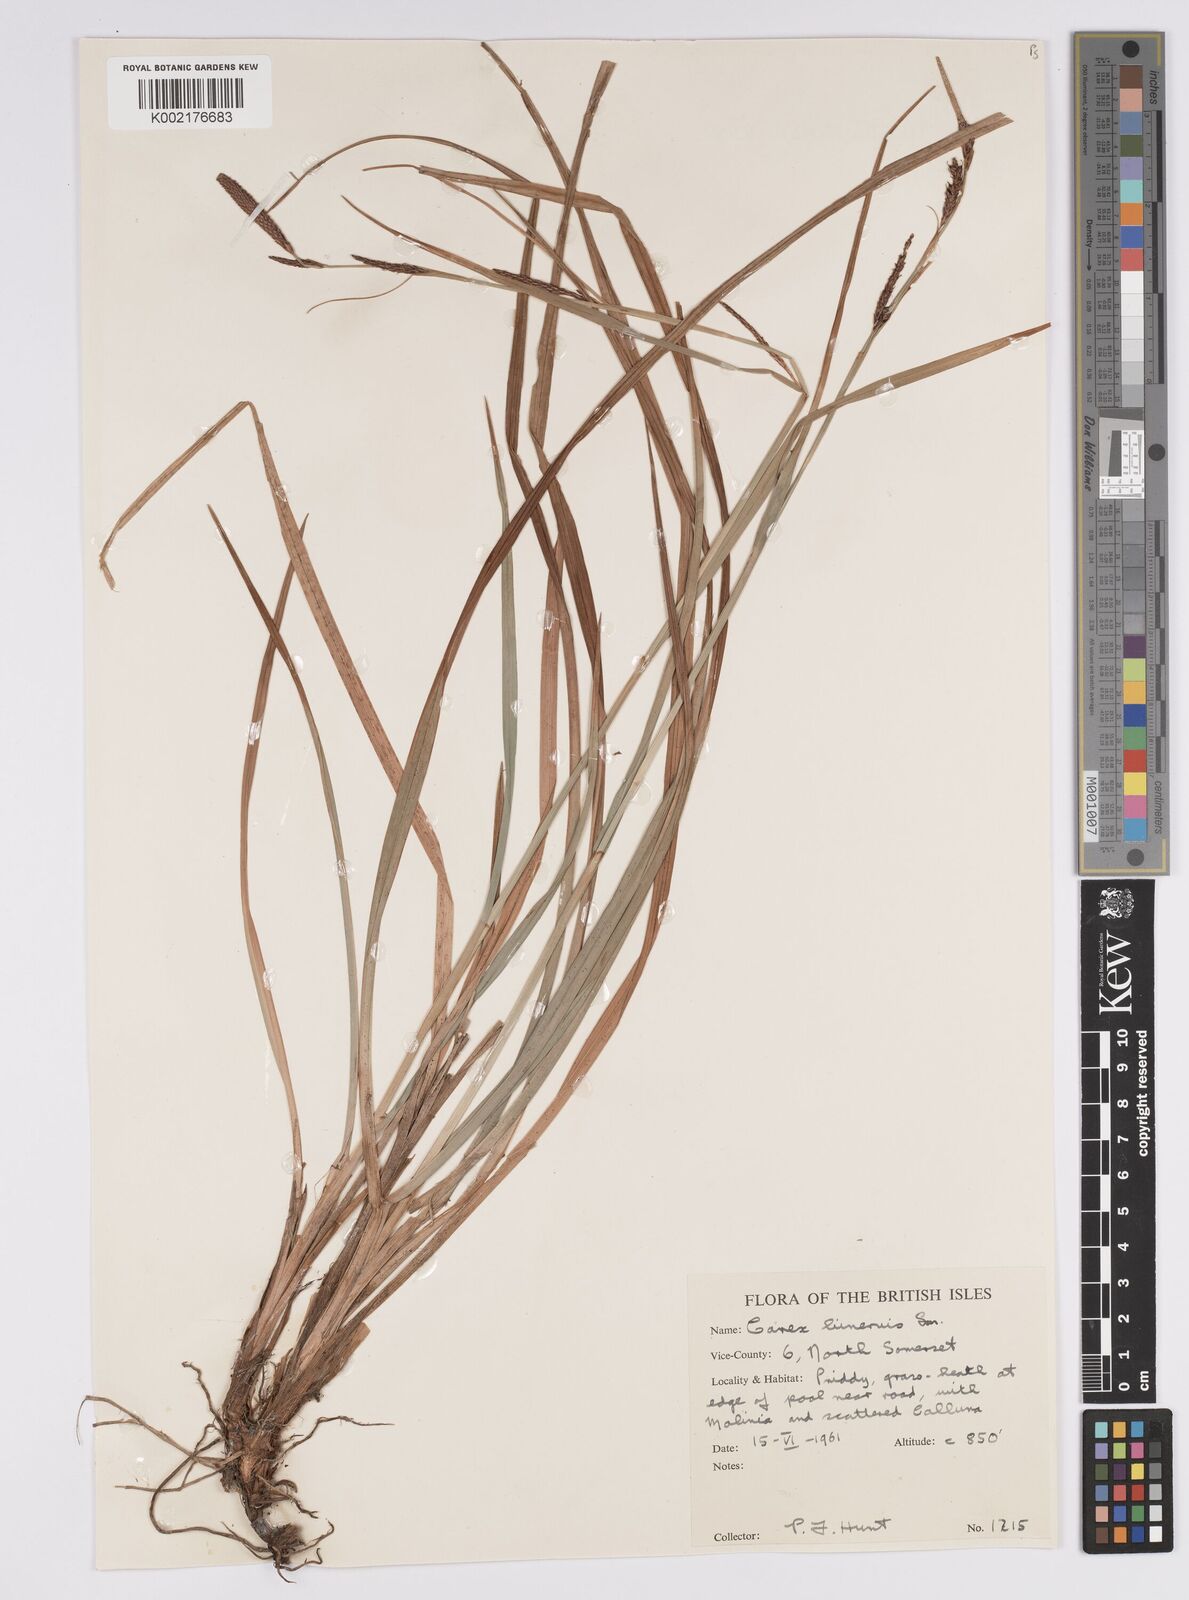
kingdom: Plantae
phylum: Tracheophyta
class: Liliopsida
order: Poales
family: Cyperaceae
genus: Carex
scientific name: Carex binervis
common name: Green-ribbed sedge
